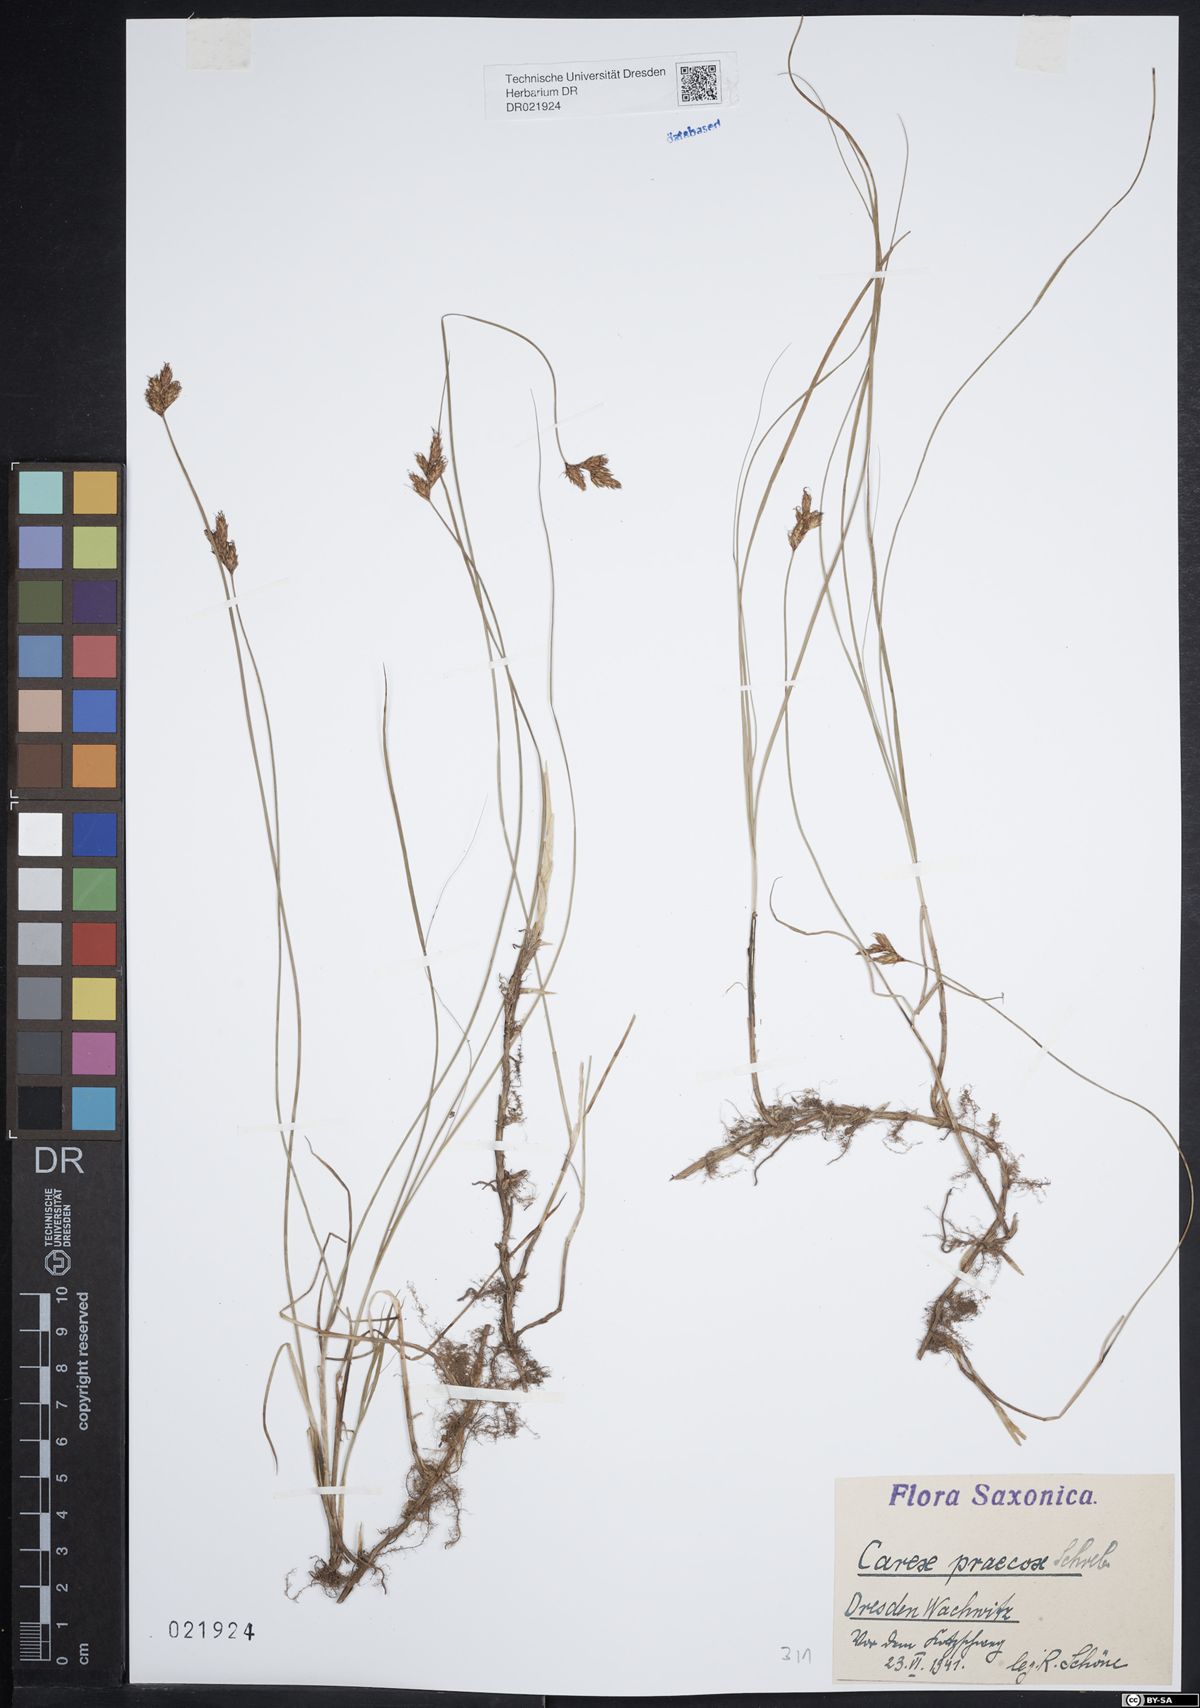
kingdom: Plantae
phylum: Tracheophyta
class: Liliopsida
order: Poales
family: Cyperaceae
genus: Carex
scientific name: Carex praecox
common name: Early sedge
